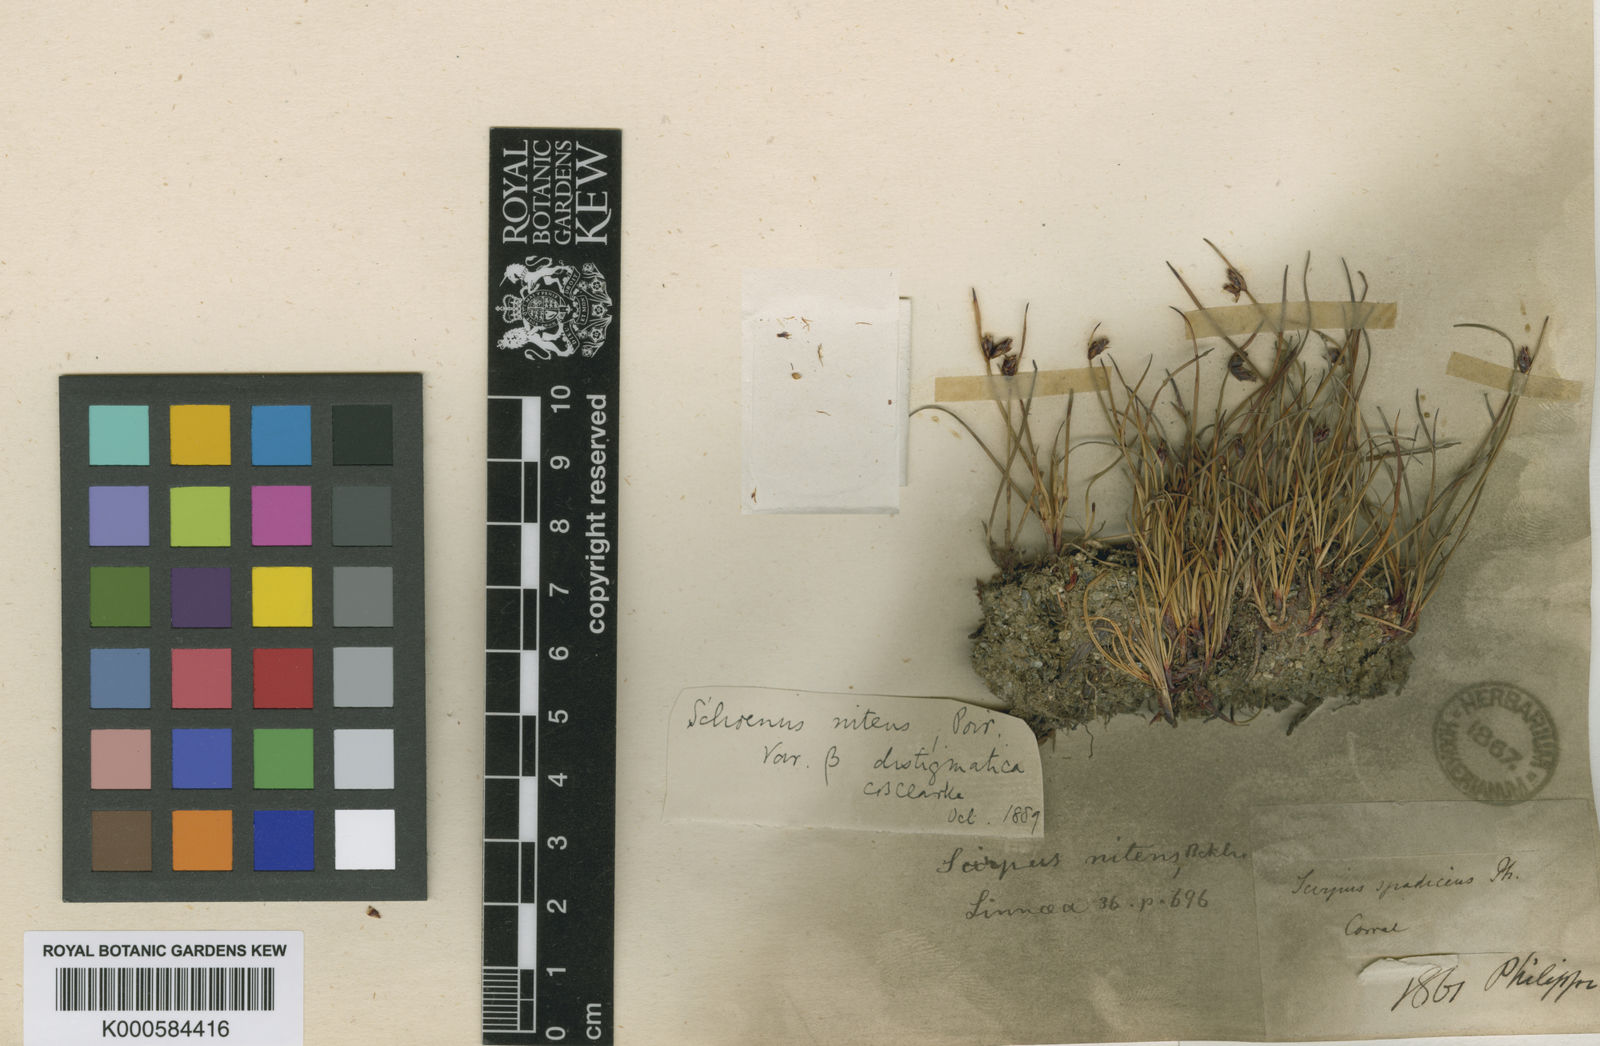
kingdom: Plantae
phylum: Tracheophyta
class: Liliopsida
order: Poales
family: Cyperaceae
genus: Schoenus
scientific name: Schoenus
